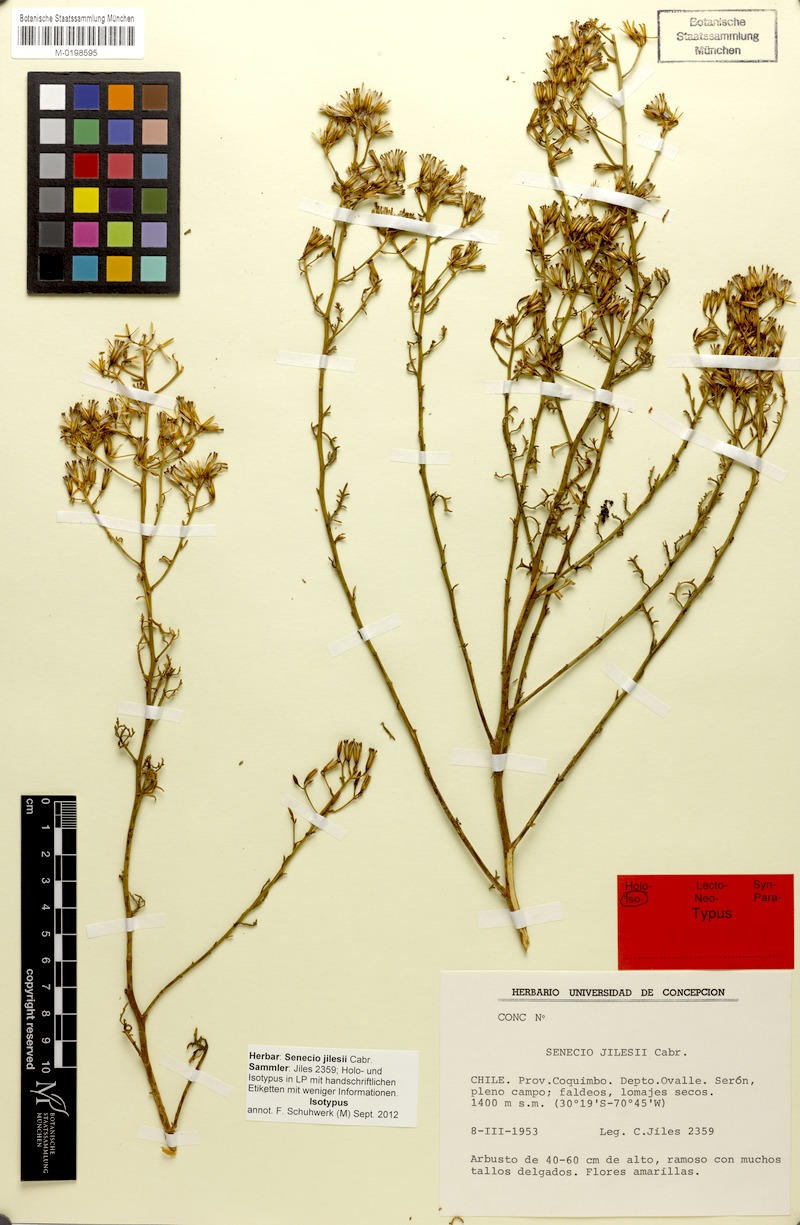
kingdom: Plantae
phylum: Tracheophyta
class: Magnoliopsida
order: Asterales
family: Asteraceae
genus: Senecio
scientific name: Senecio jilesii
